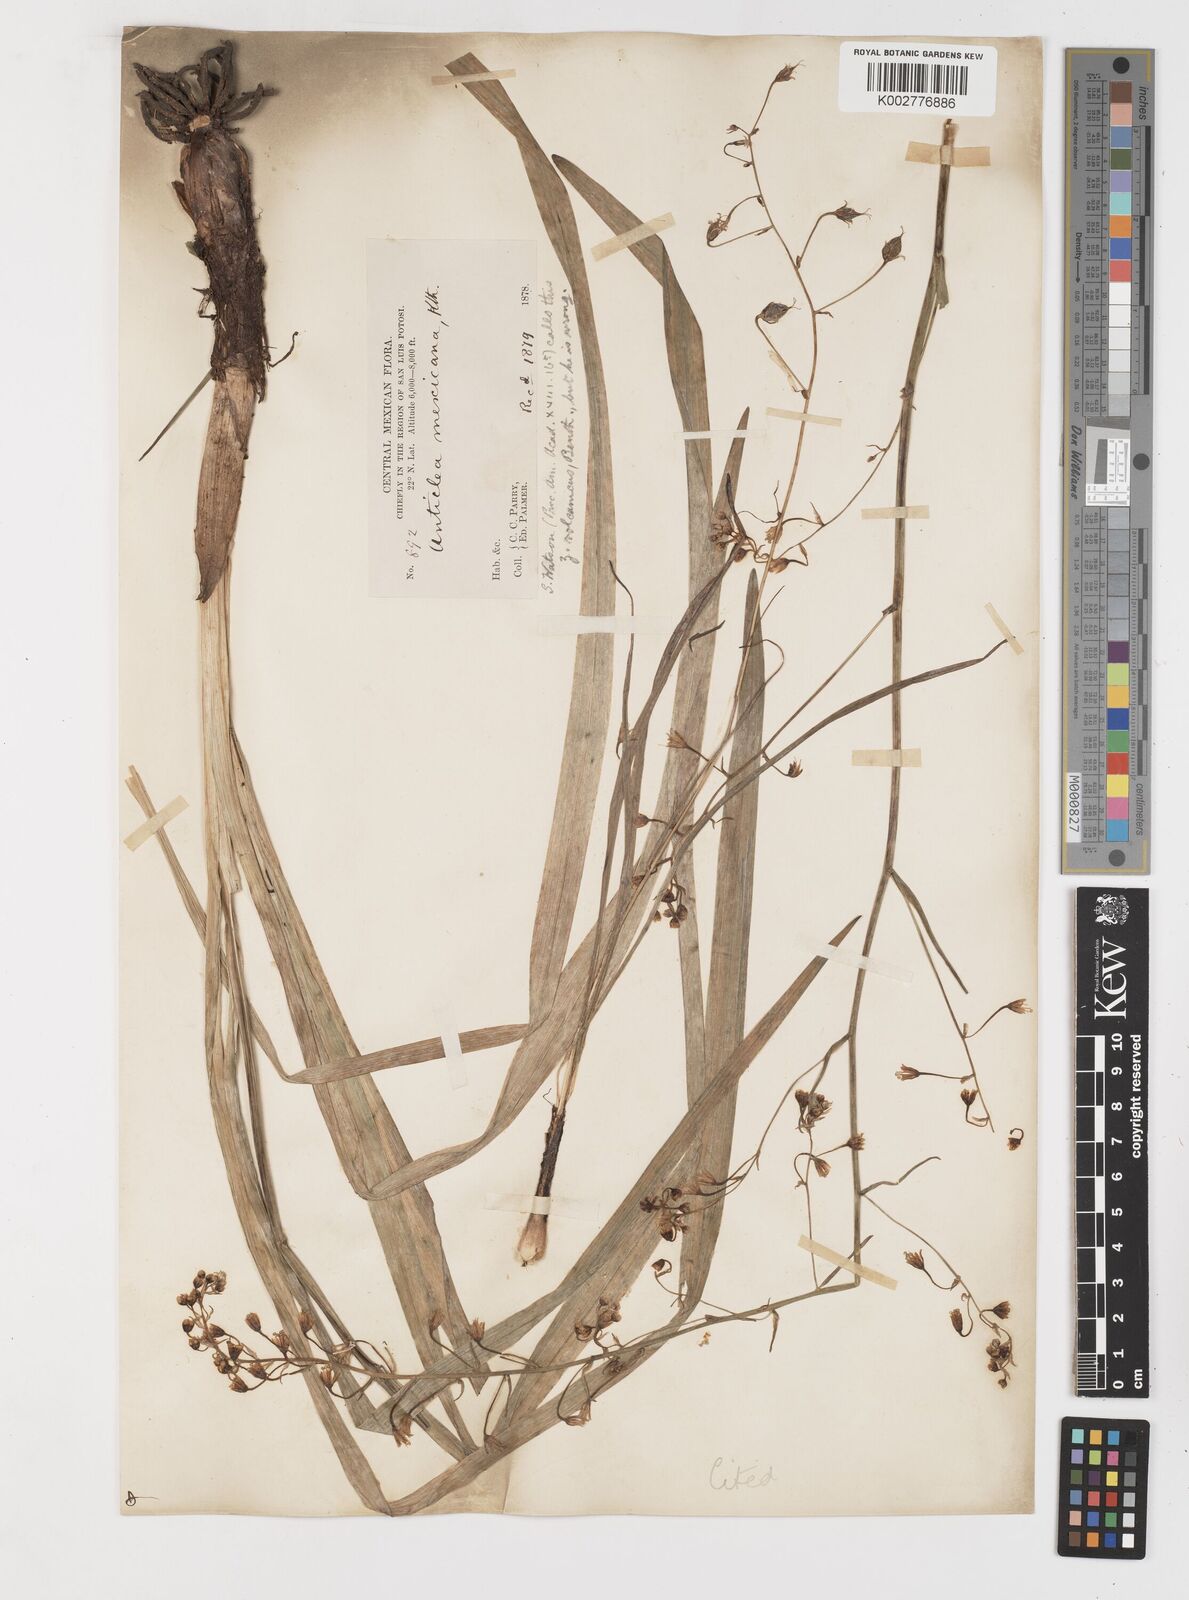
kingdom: Plantae
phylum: Tracheophyta
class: Liliopsida
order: Liliales
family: Melanthiaceae
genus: Anticlea
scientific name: Anticlea virescens
